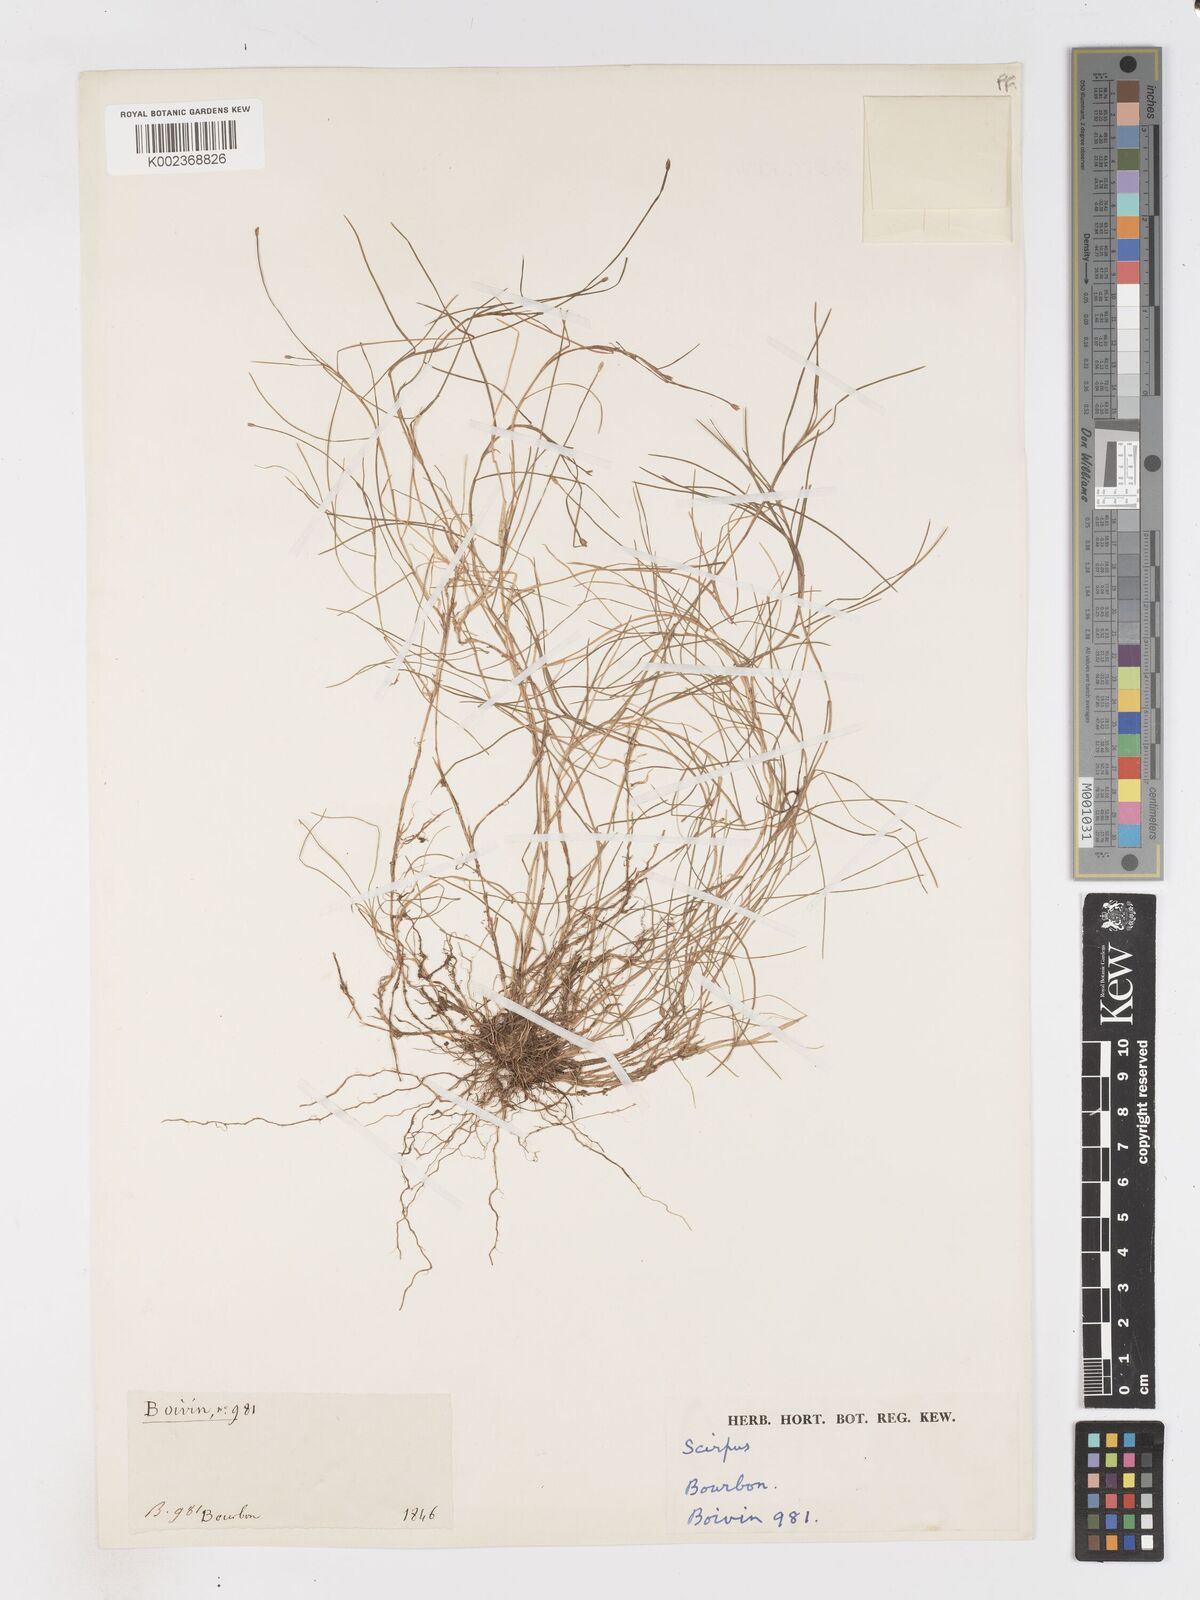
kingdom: Plantae
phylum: Tracheophyta
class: Liliopsida
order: Poales
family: Cyperaceae
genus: Isolepis
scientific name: Isolepis fluitans
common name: Floating club-rush
